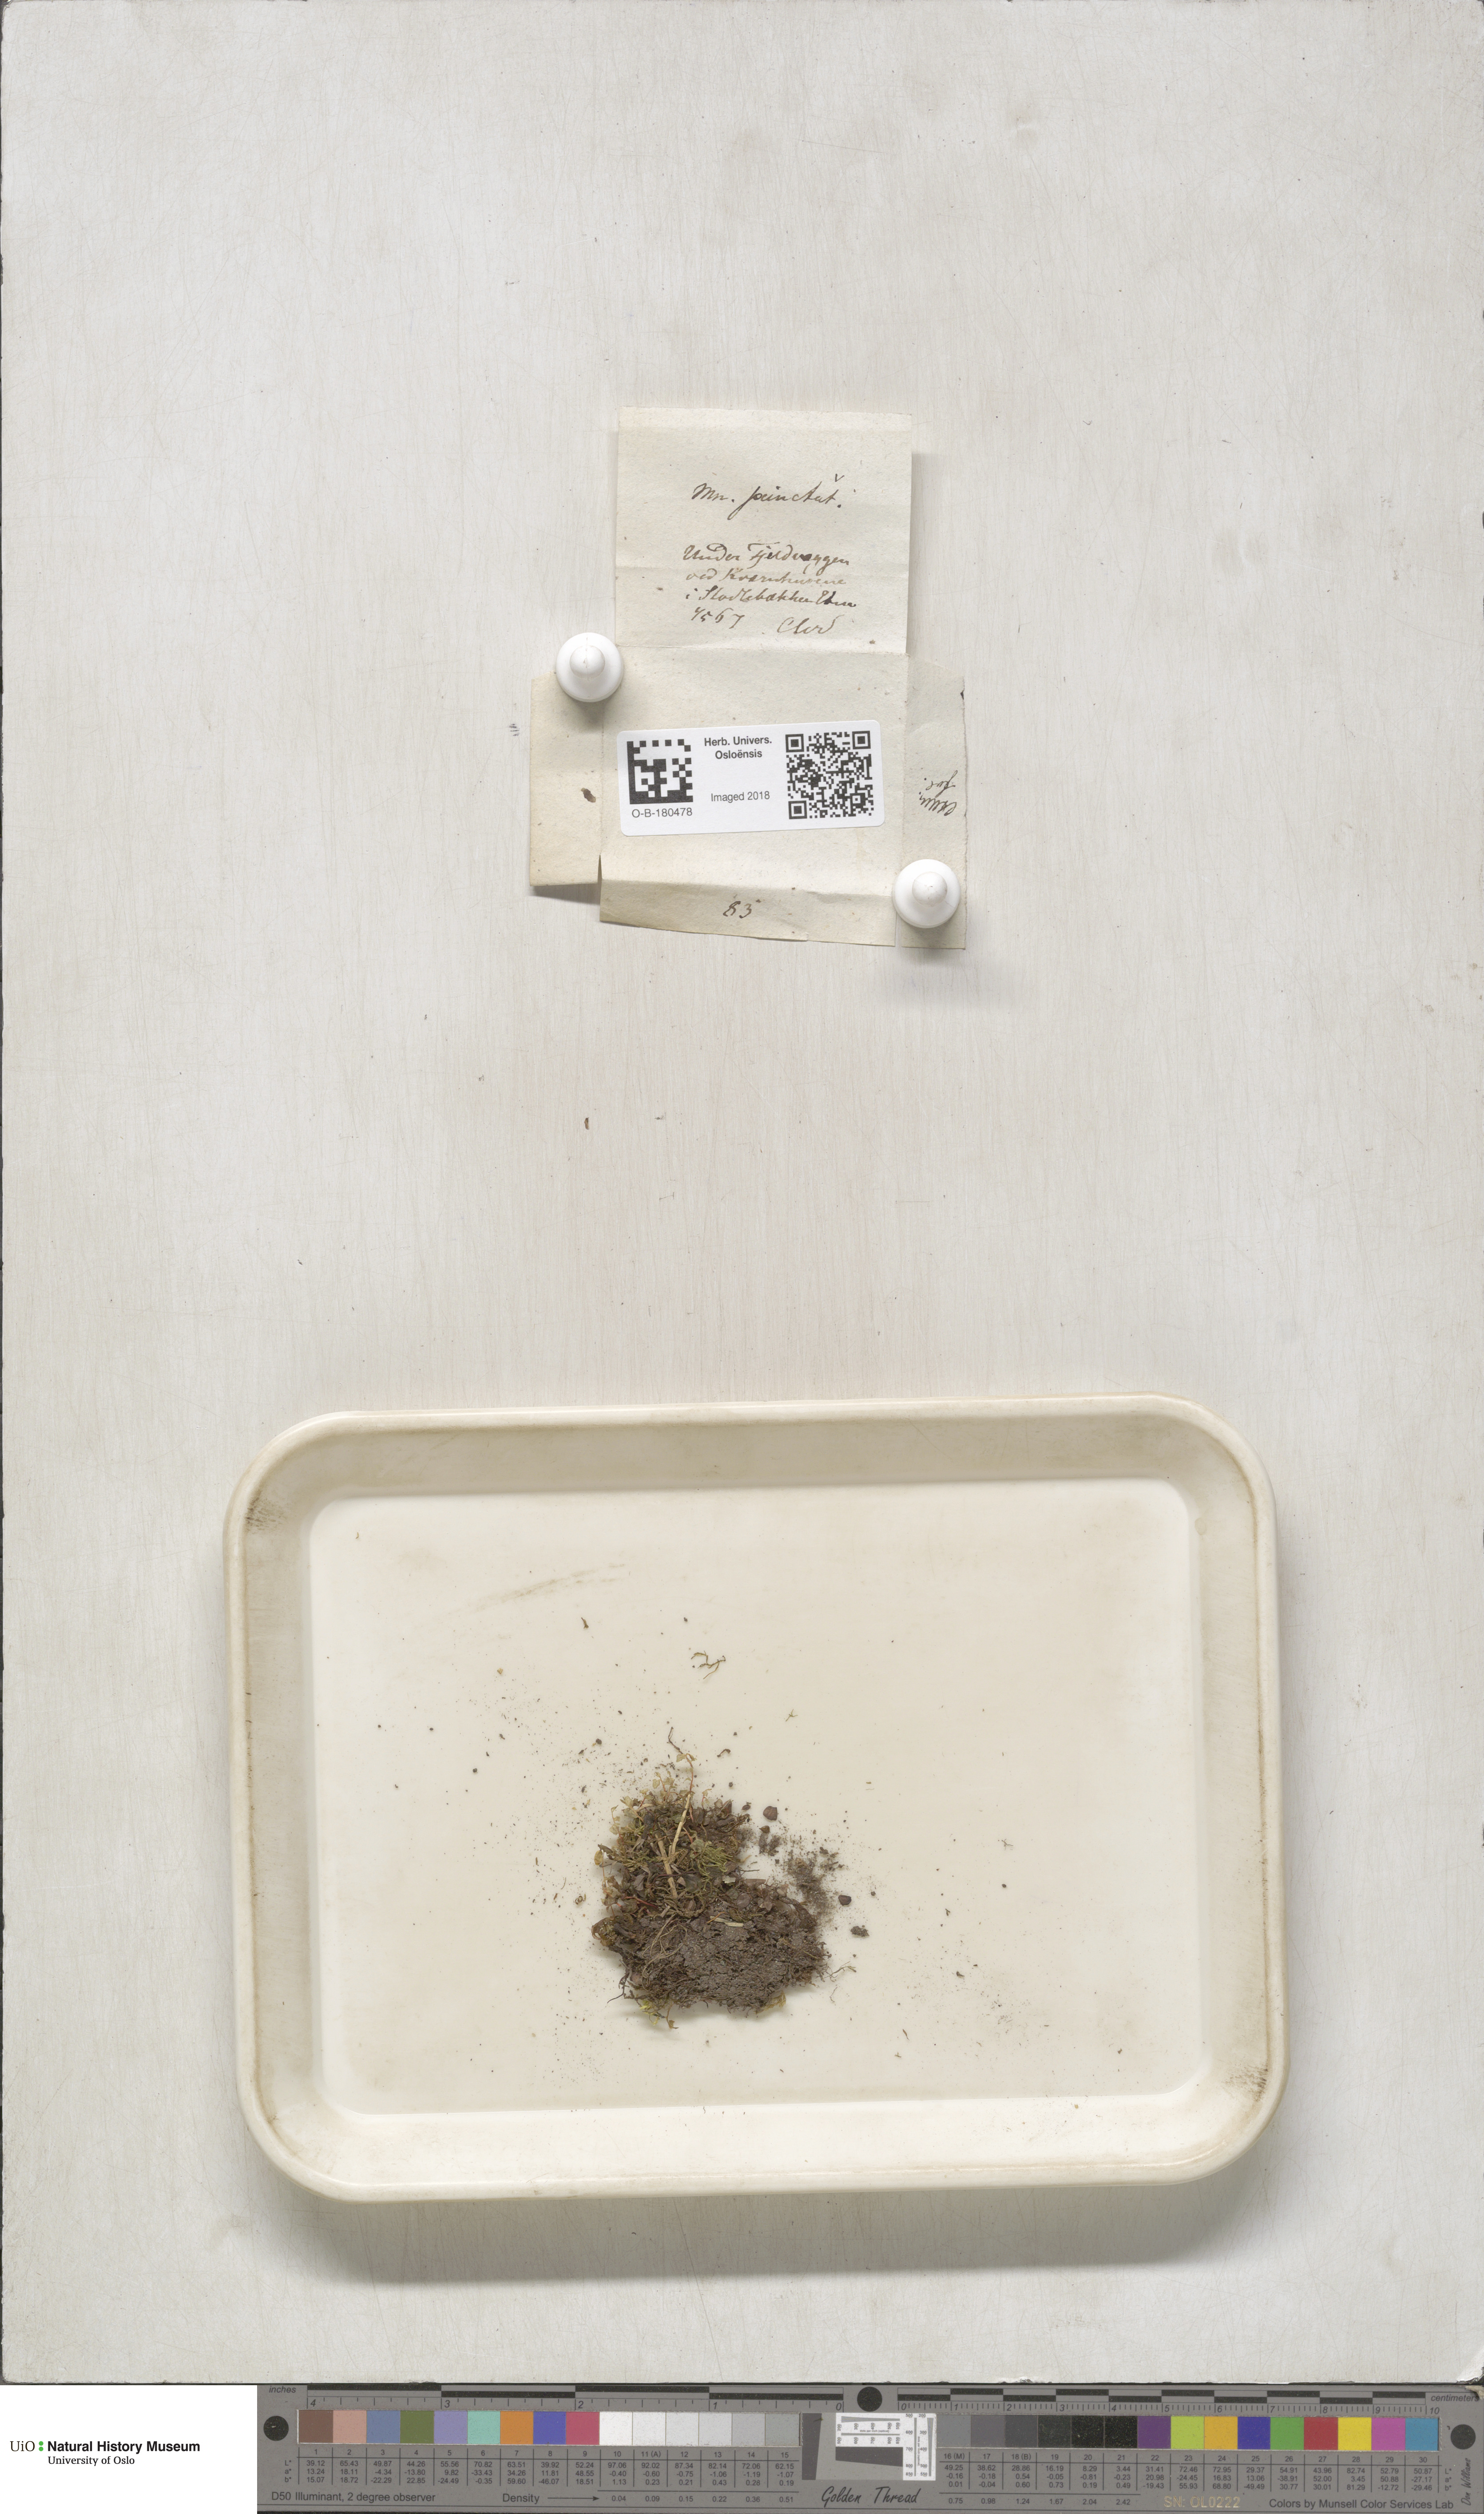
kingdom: Plantae
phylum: Bryophyta
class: Bryopsida
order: Bryales
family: Mniaceae
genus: Rhizomnium
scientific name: Rhizomnium punctatum
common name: Dotted leafy moss
